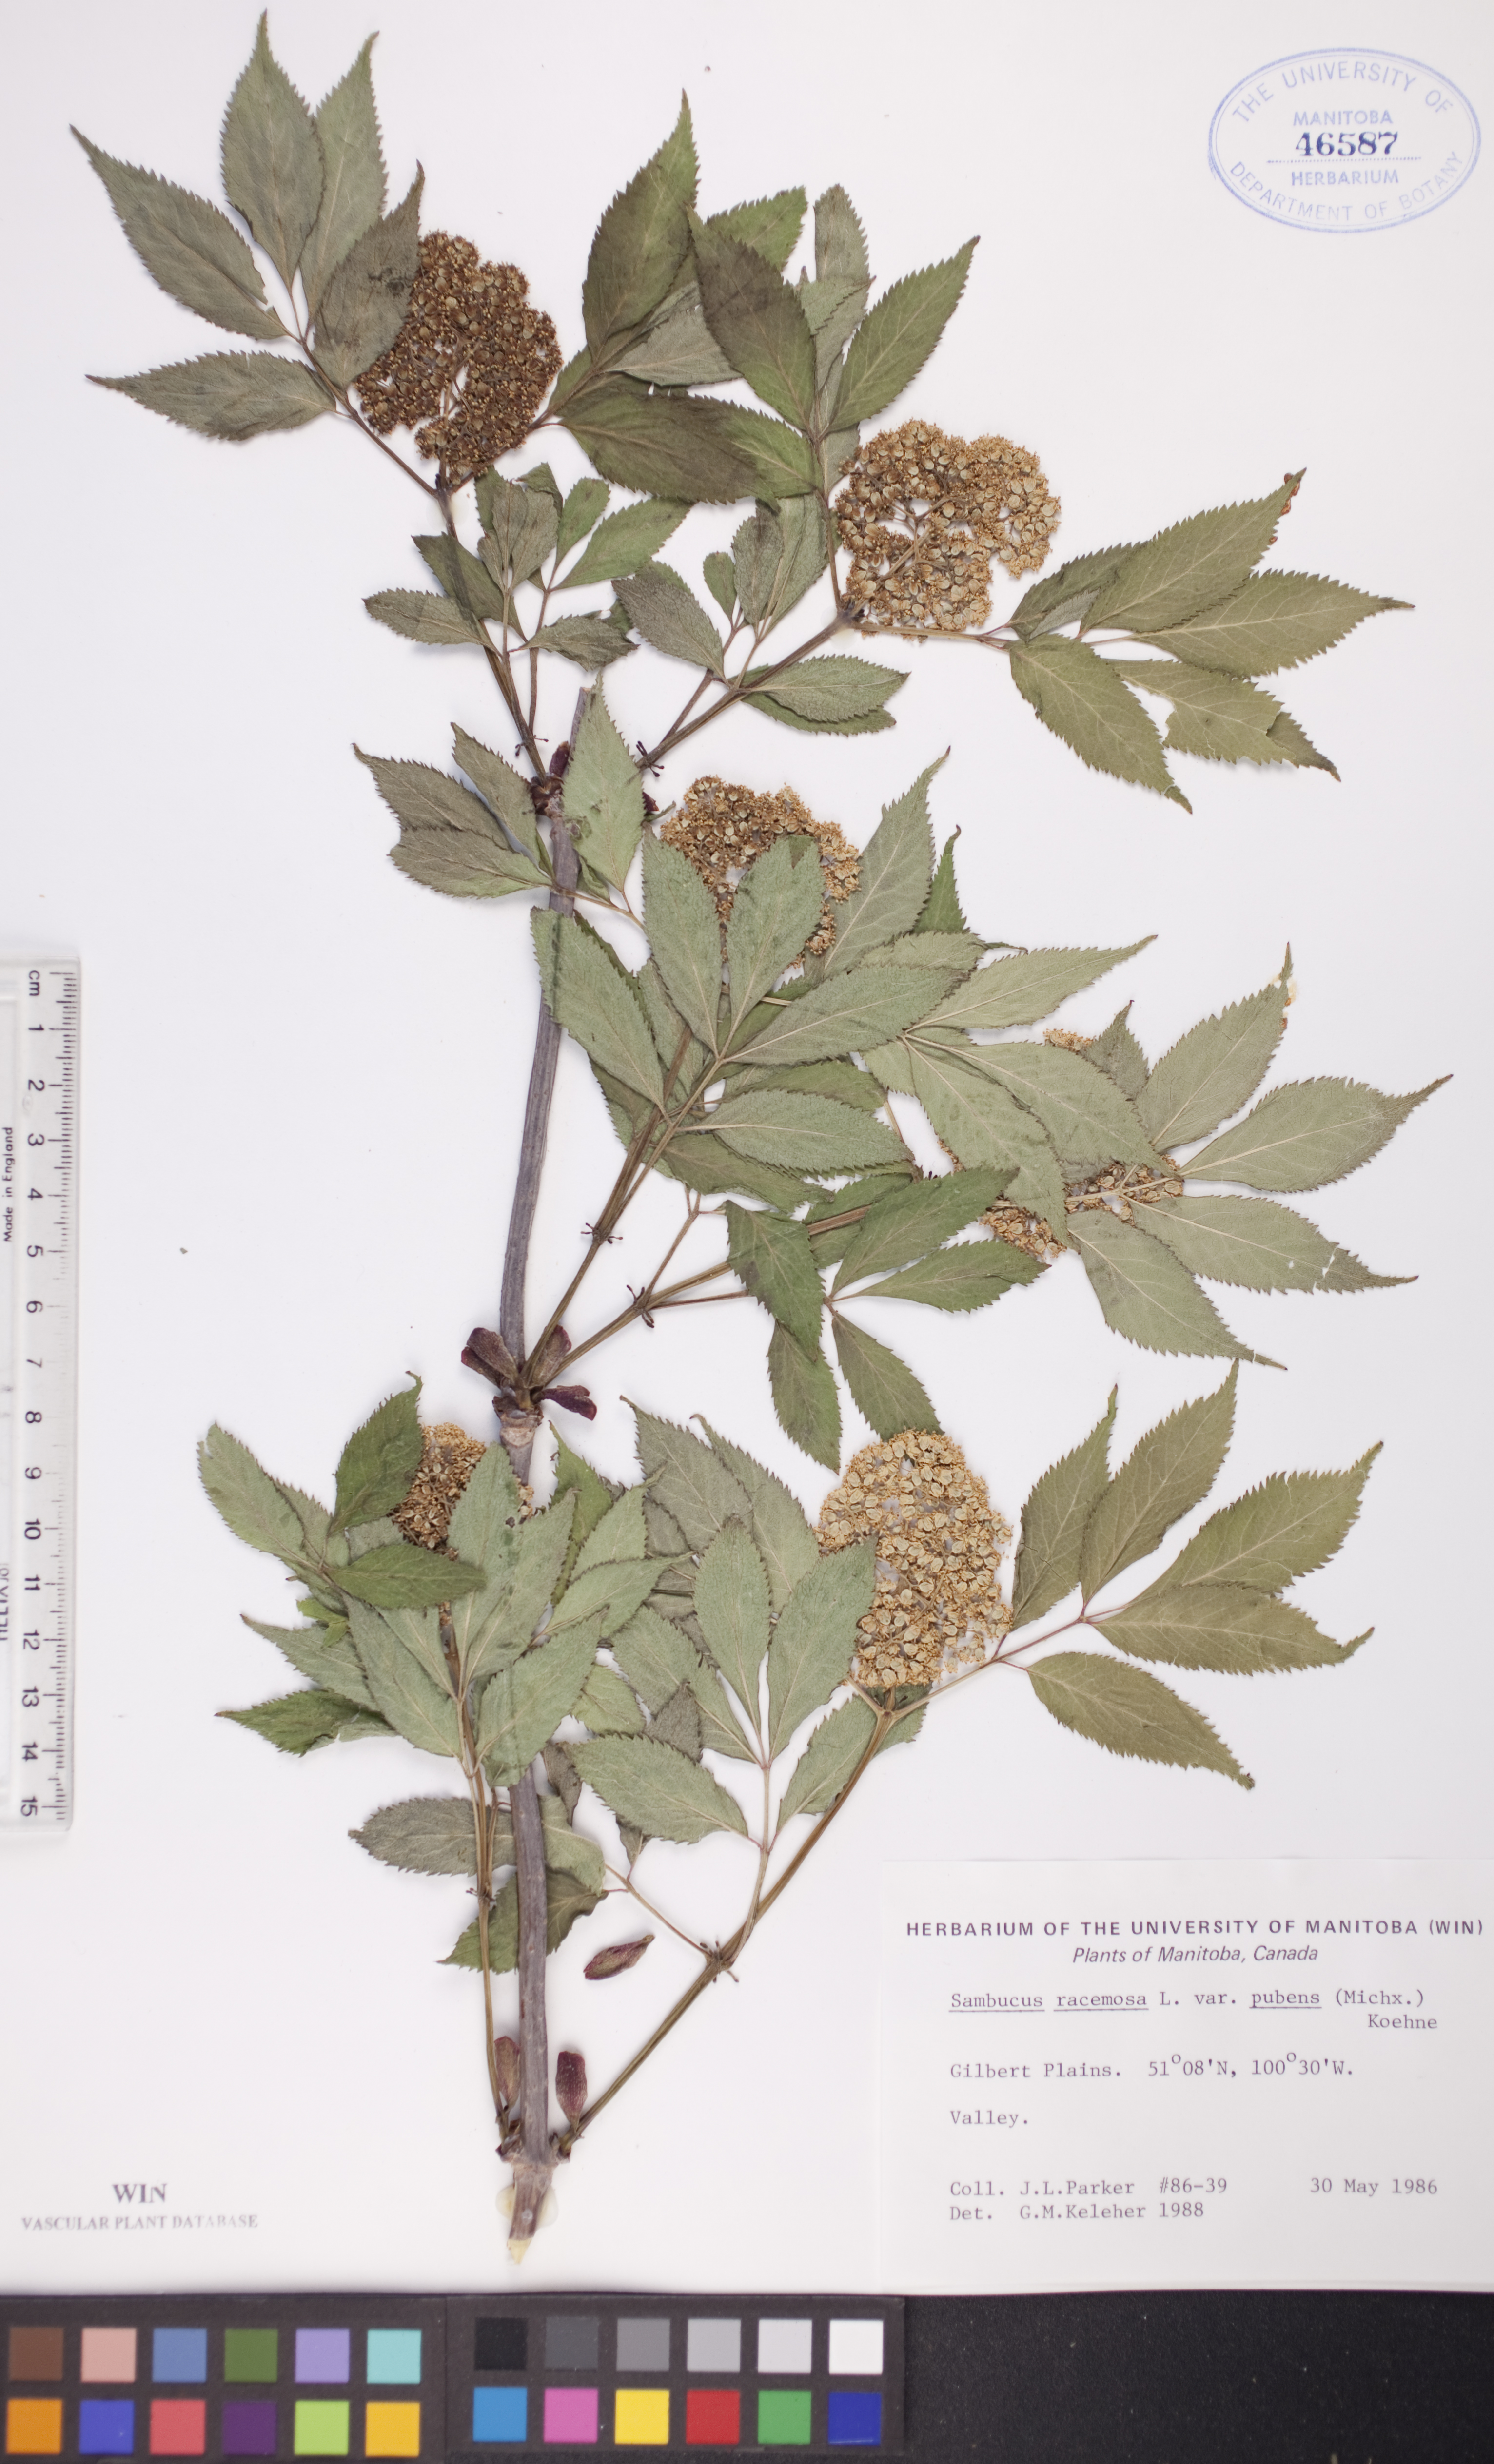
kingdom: Plantae
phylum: Tracheophyta
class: Magnoliopsida
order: Dipsacales
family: Viburnaceae
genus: Sambucus
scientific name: Sambucus racemosa
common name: Red-berried elder
